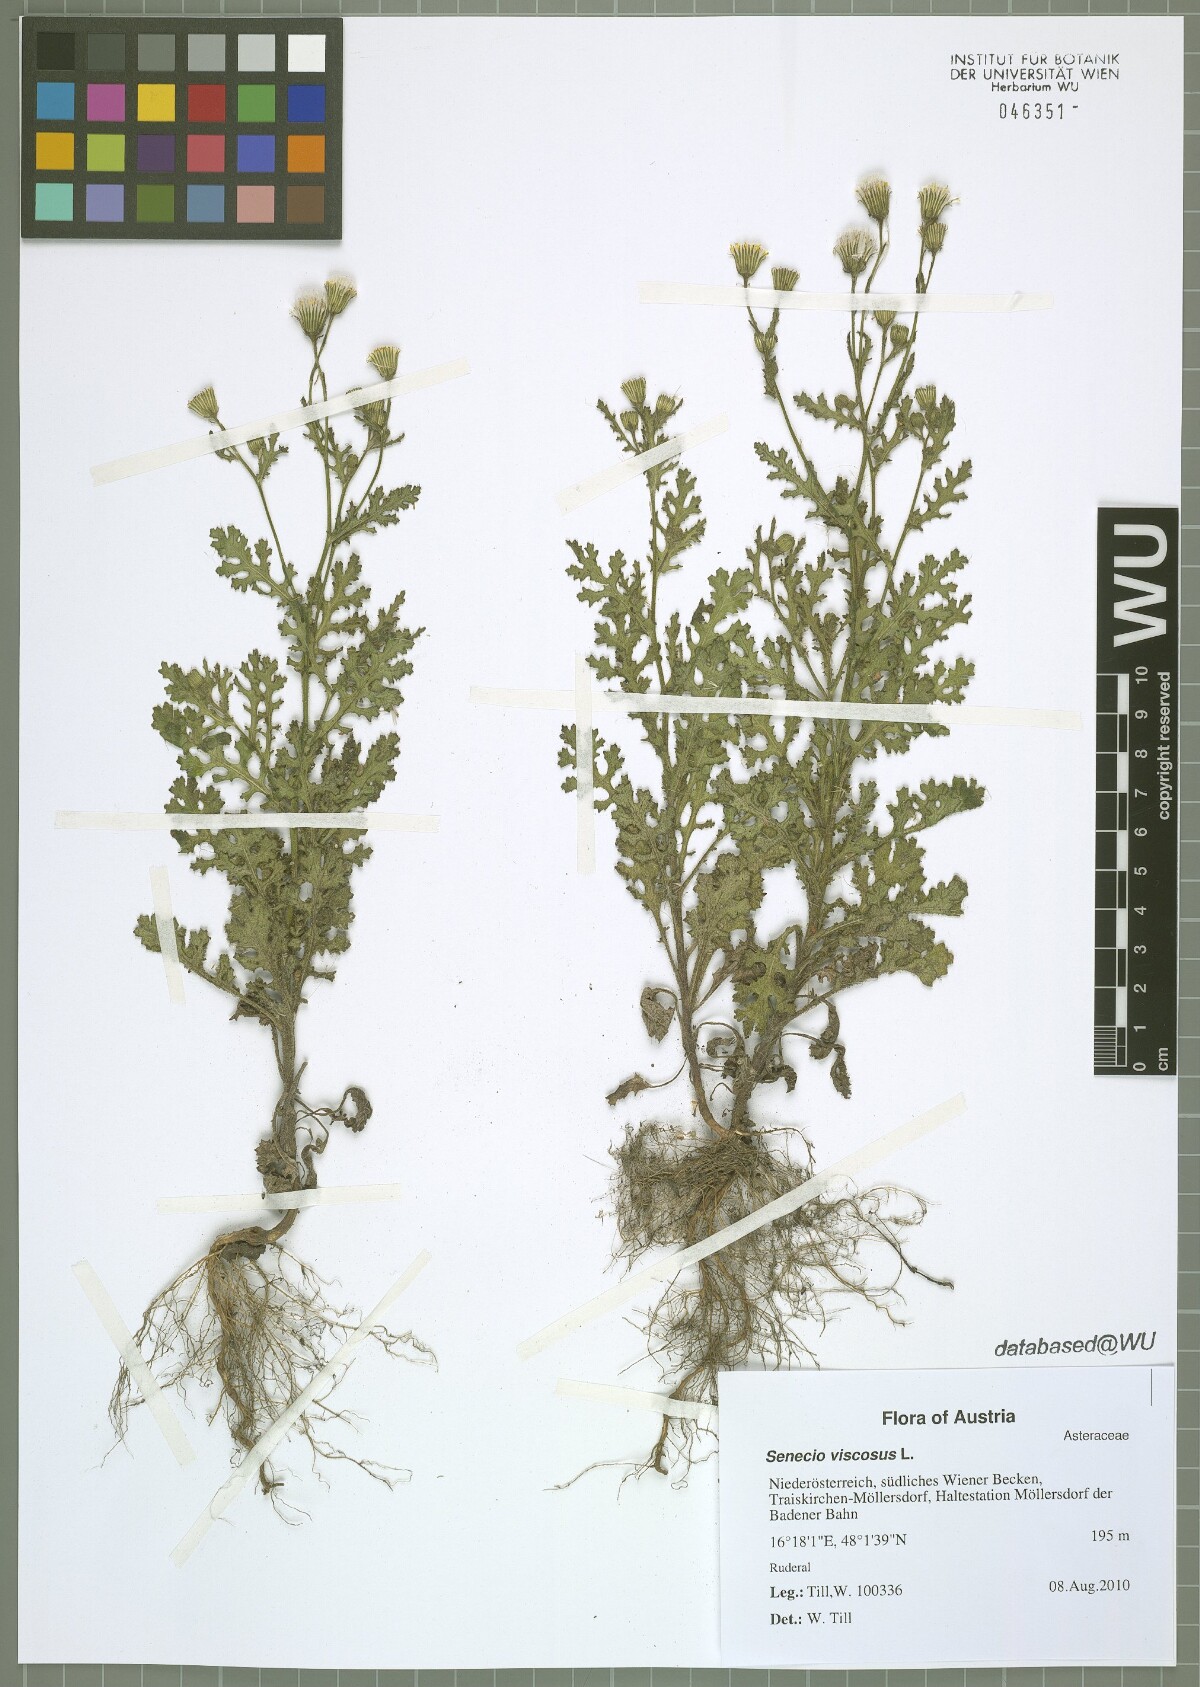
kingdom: Plantae
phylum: Tracheophyta
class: Magnoliopsida
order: Asterales
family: Asteraceae
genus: Senecio
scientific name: Senecio viscosus
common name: Sticky groundsel
